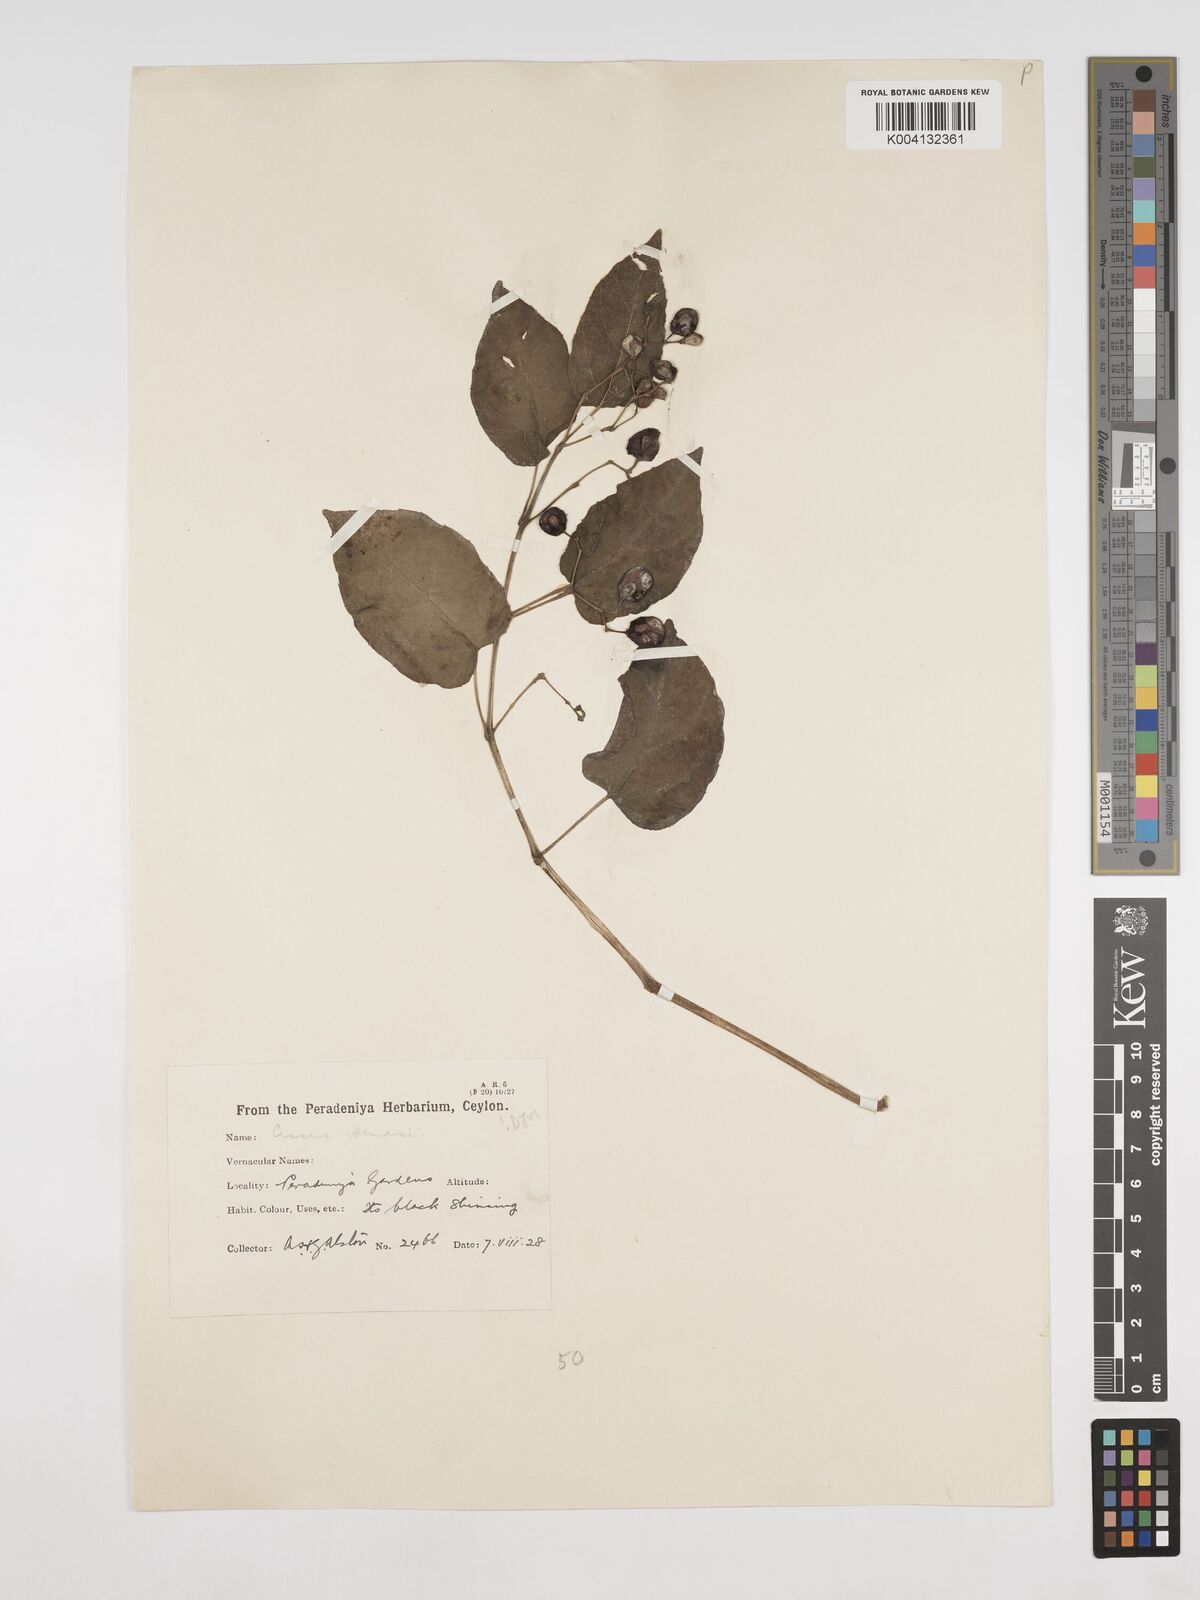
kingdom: Plantae
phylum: Tracheophyta
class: Magnoliopsida
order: Vitales
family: Vitaceae
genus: Cissus
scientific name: Cissus glyptocarpa
